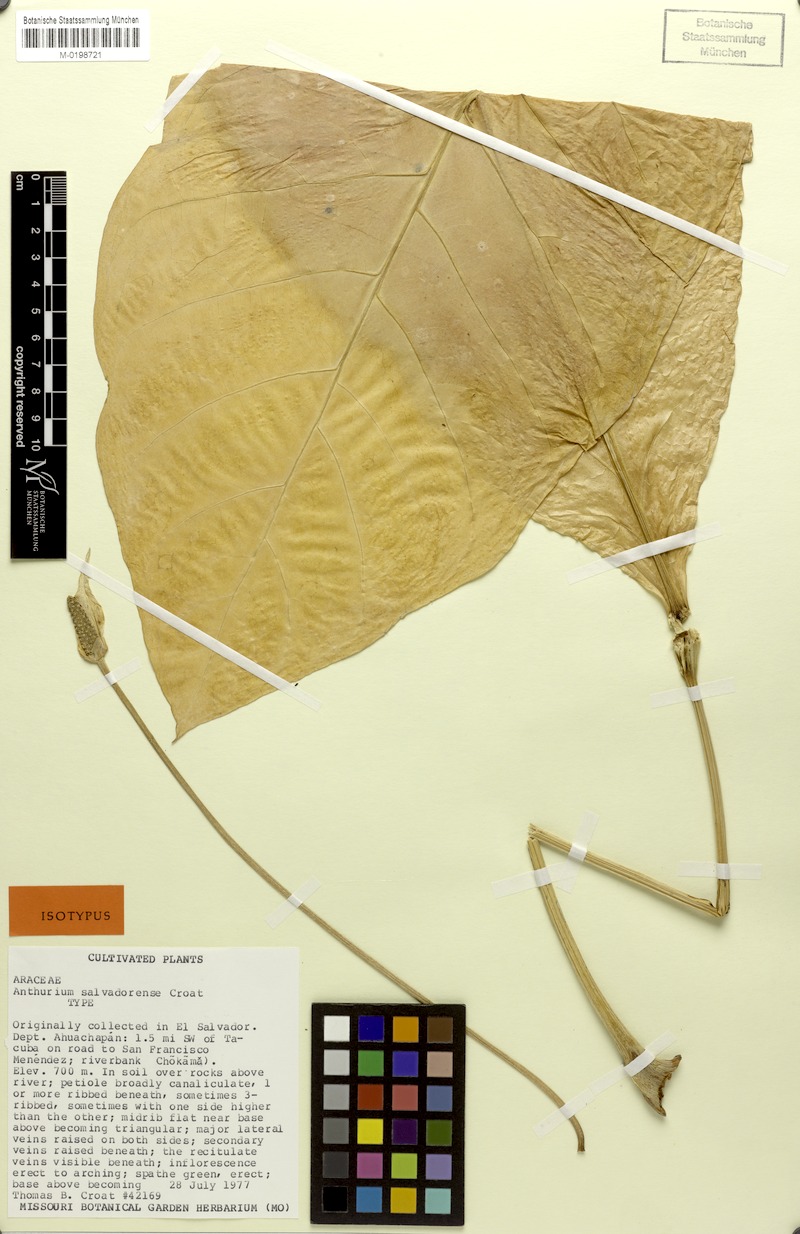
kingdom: Plantae
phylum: Tracheophyta
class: Liliopsida
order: Alismatales
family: Araceae
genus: Anthurium
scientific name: Anthurium salvadorense
